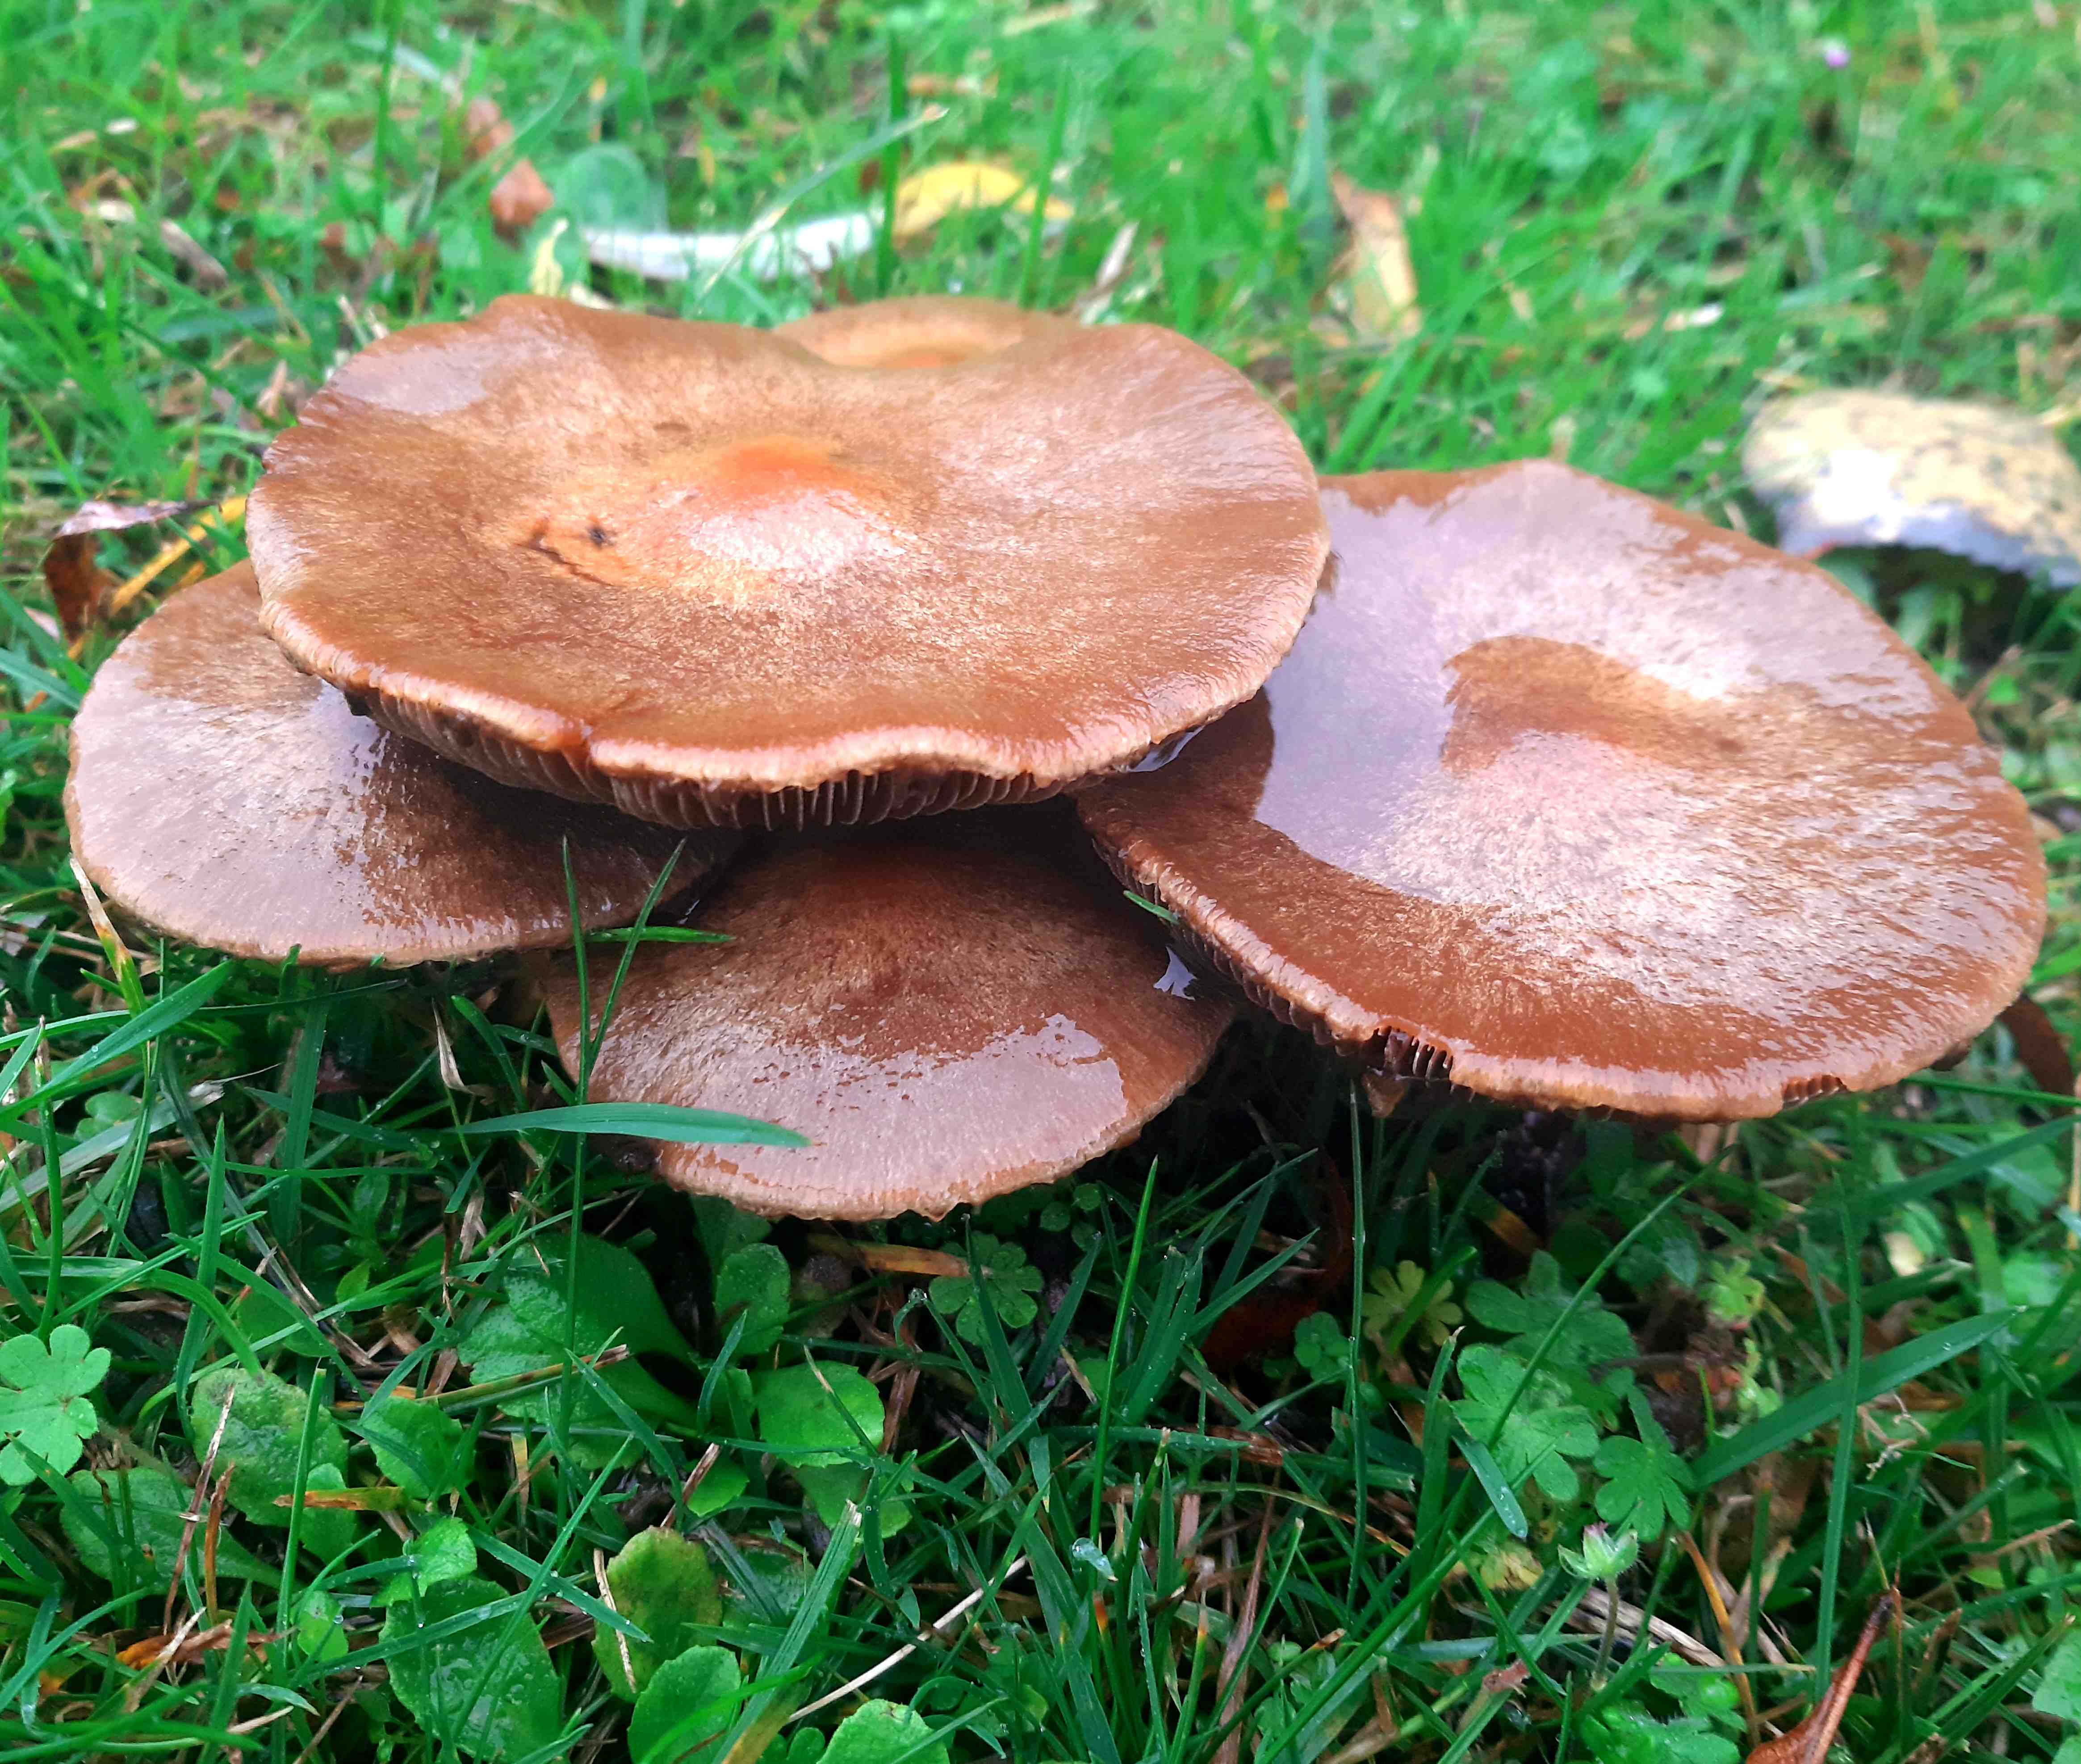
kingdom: Fungi
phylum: Basidiomycota
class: Agaricomycetes
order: Agaricales
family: Psathyrellaceae
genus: Lacrymaria
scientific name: Lacrymaria
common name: mørkhat
